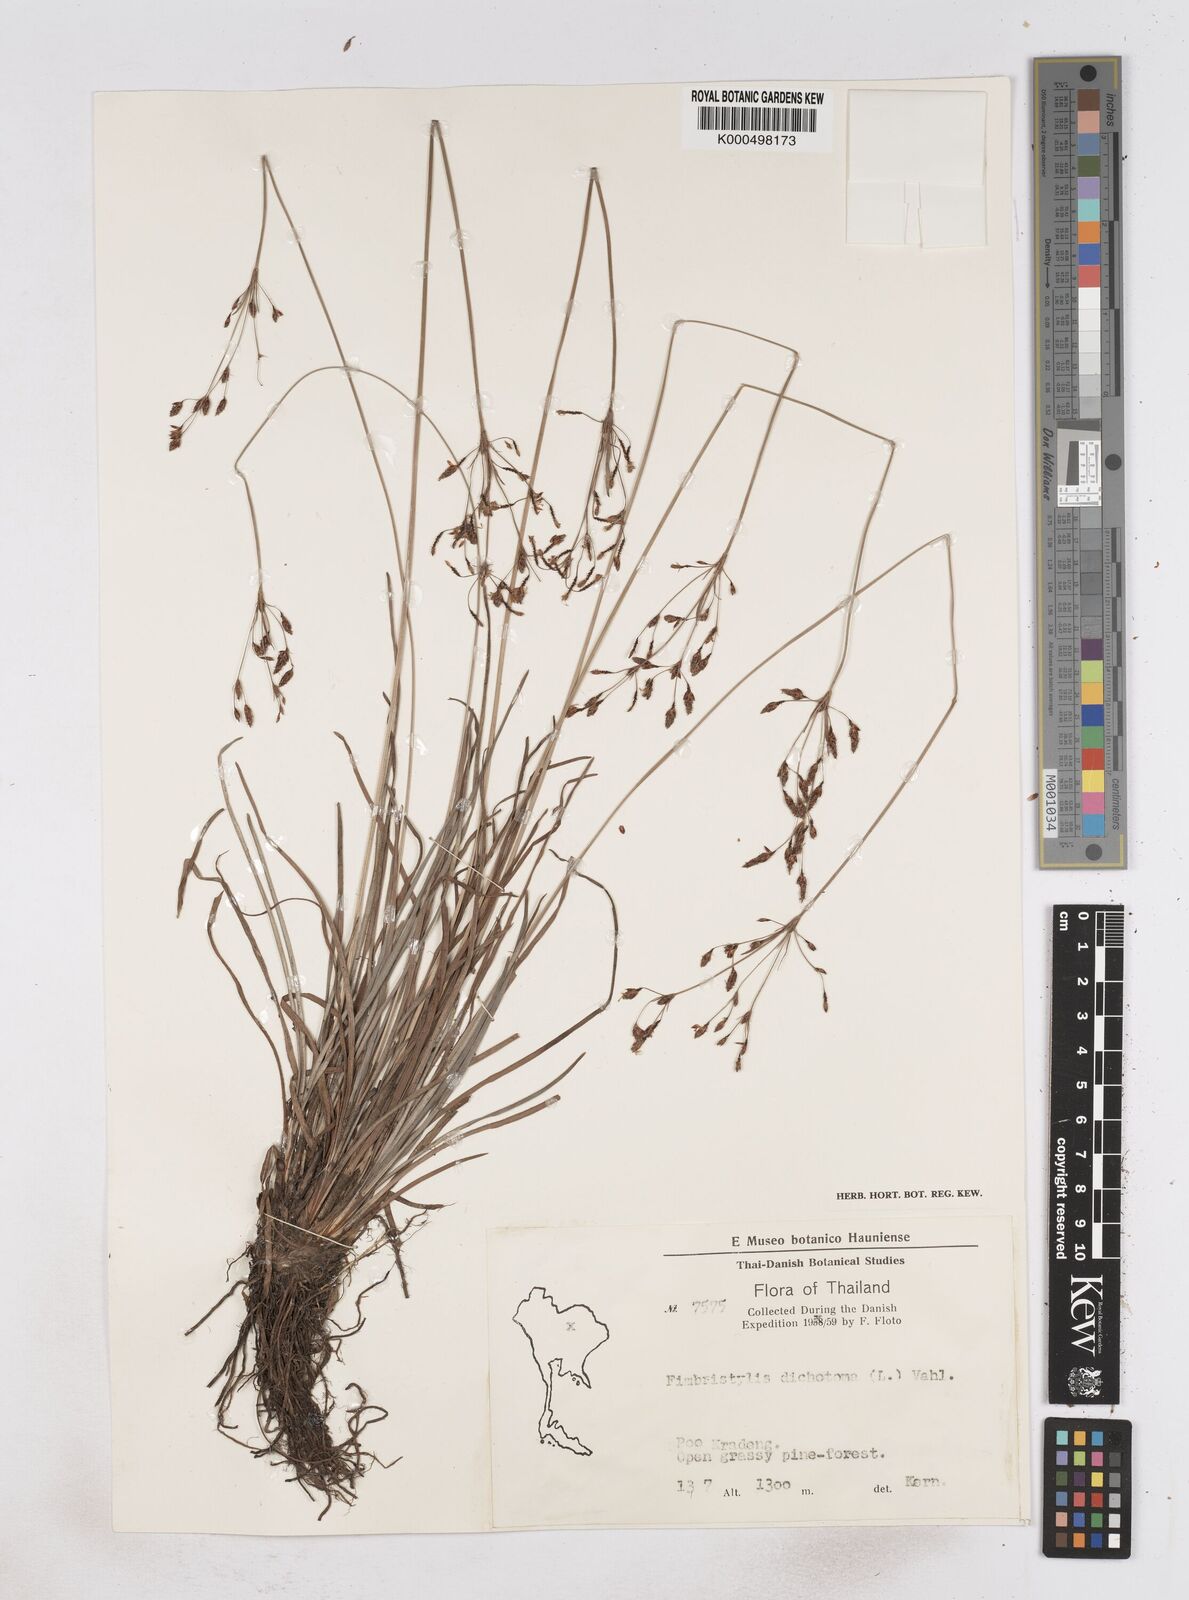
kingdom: Plantae
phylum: Tracheophyta
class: Liliopsida
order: Poales
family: Cyperaceae
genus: Fimbristylis
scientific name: Fimbristylis dichotoma
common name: Forked fimbry
